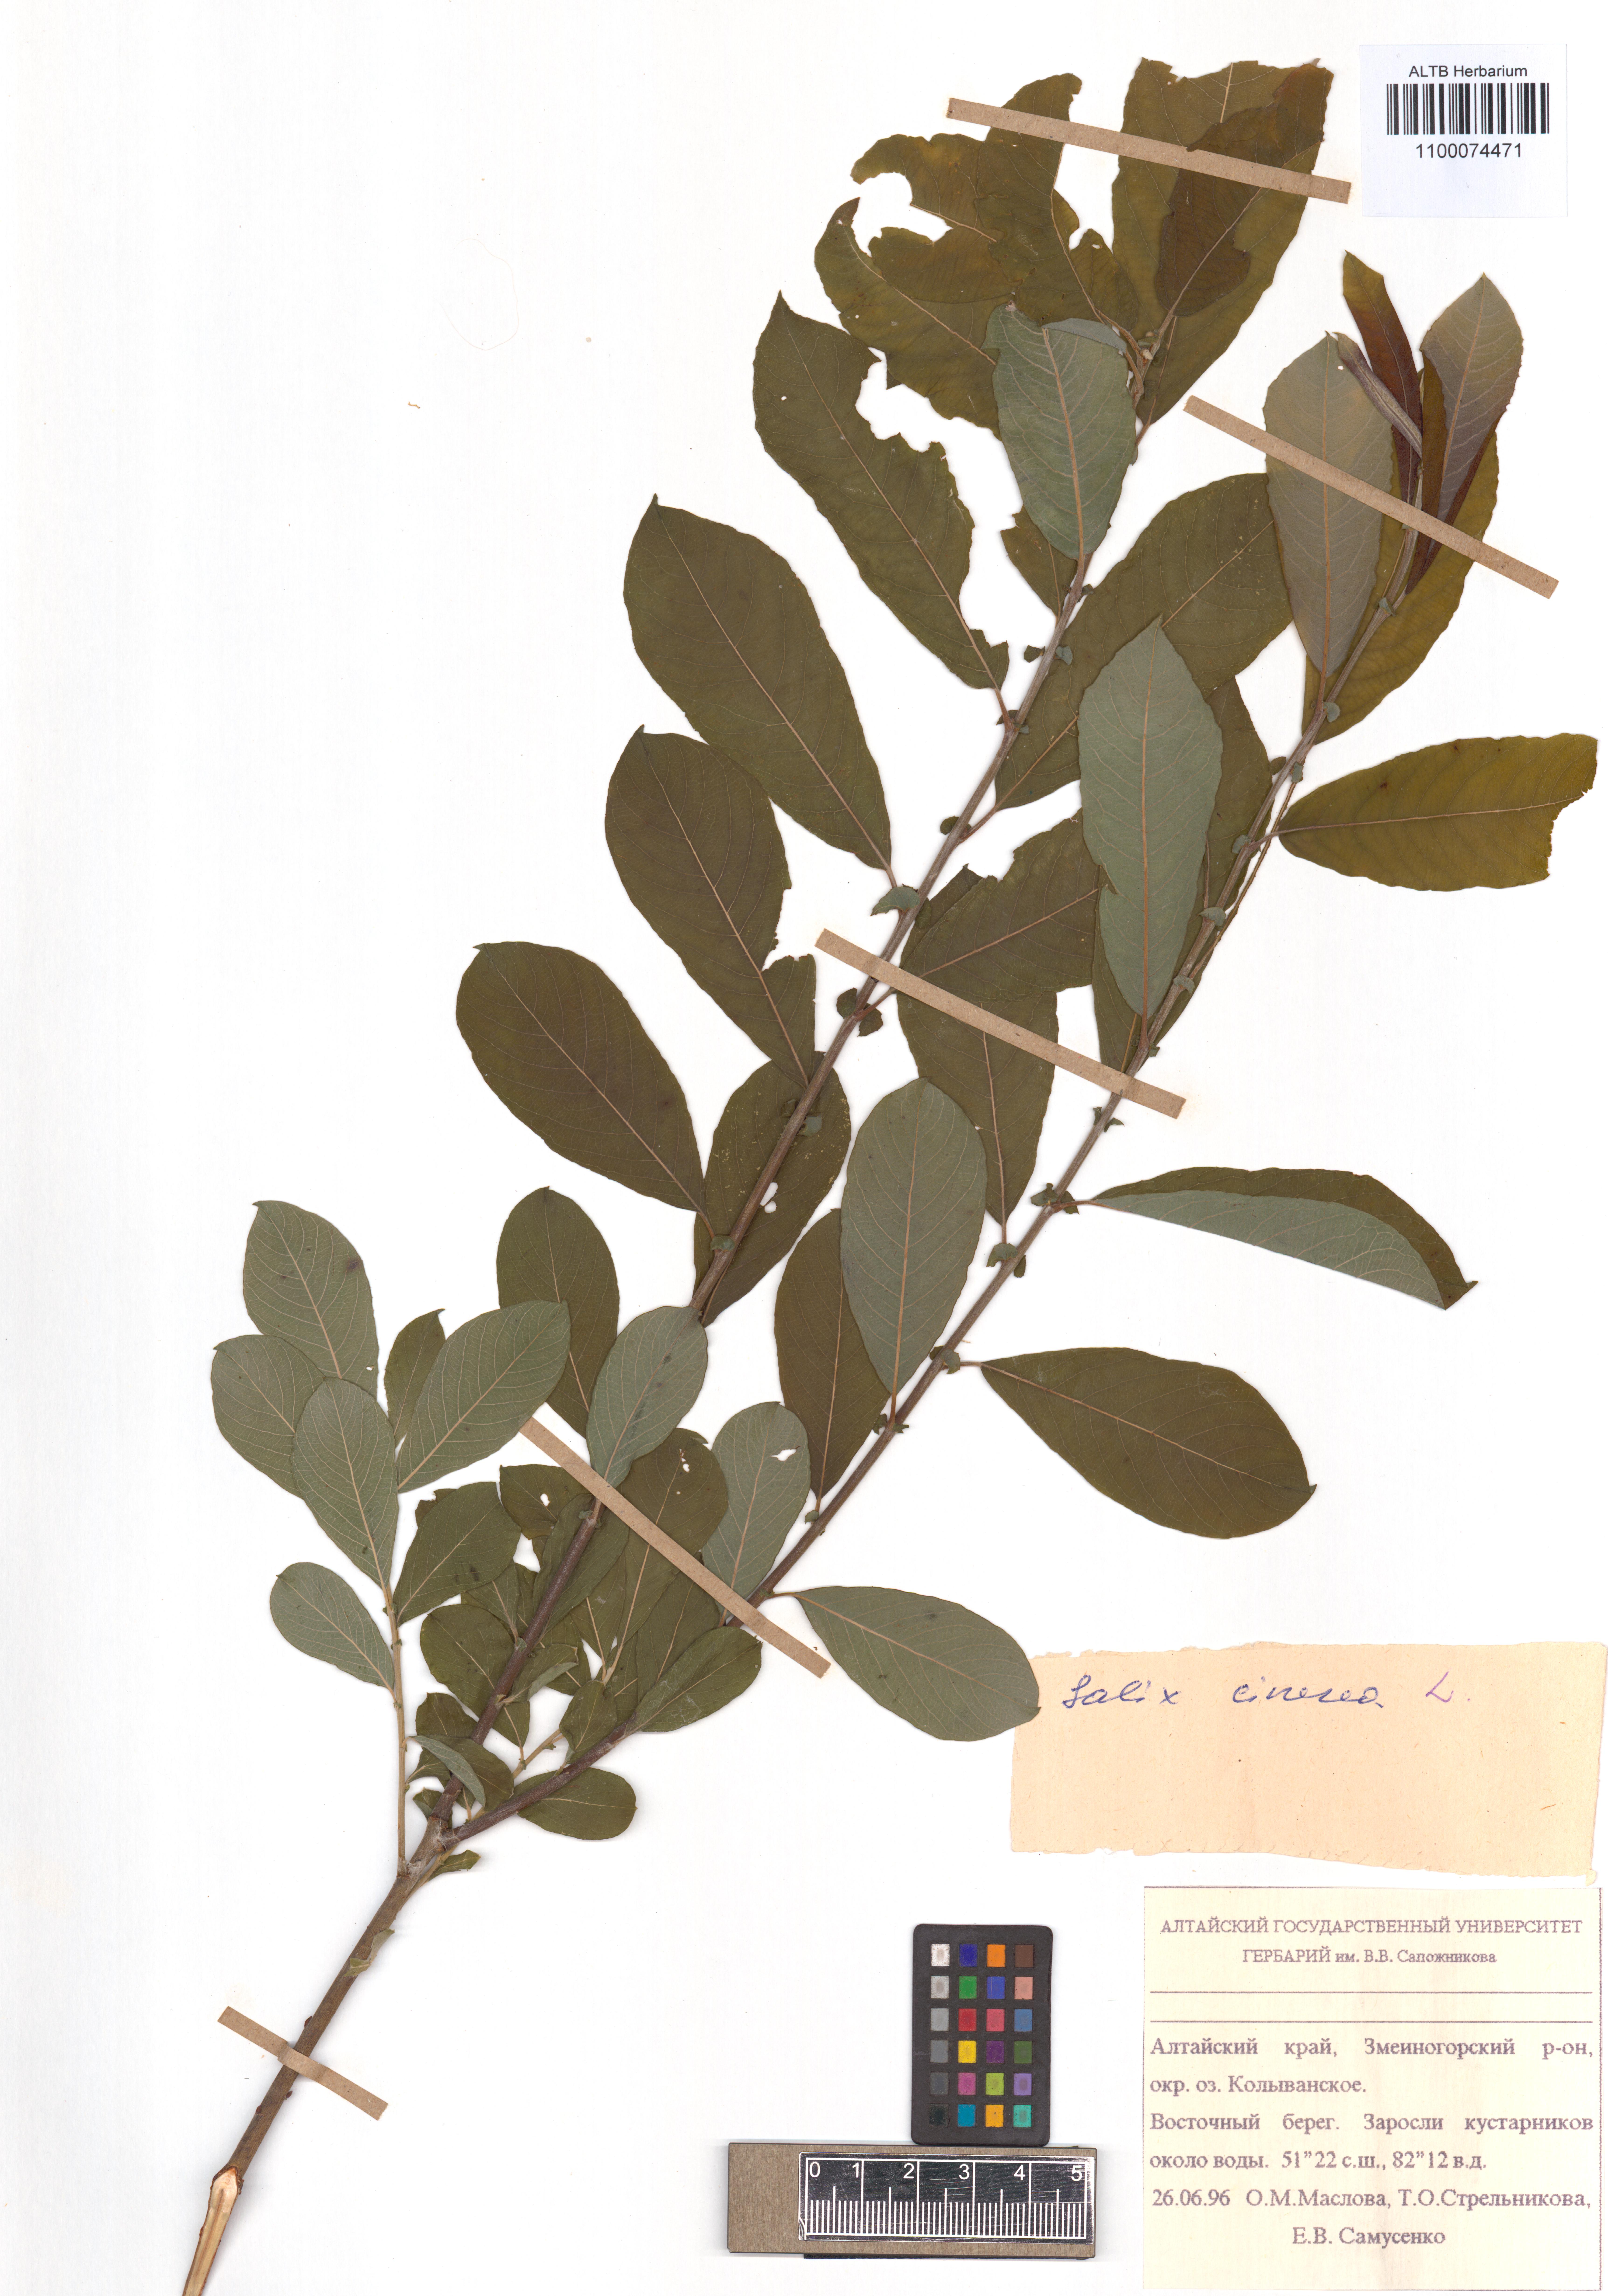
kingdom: Plantae
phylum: Tracheophyta
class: Magnoliopsida
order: Malpighiales
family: Salicaceae
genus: Salix
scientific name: Salix cinerea
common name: Common sallow
